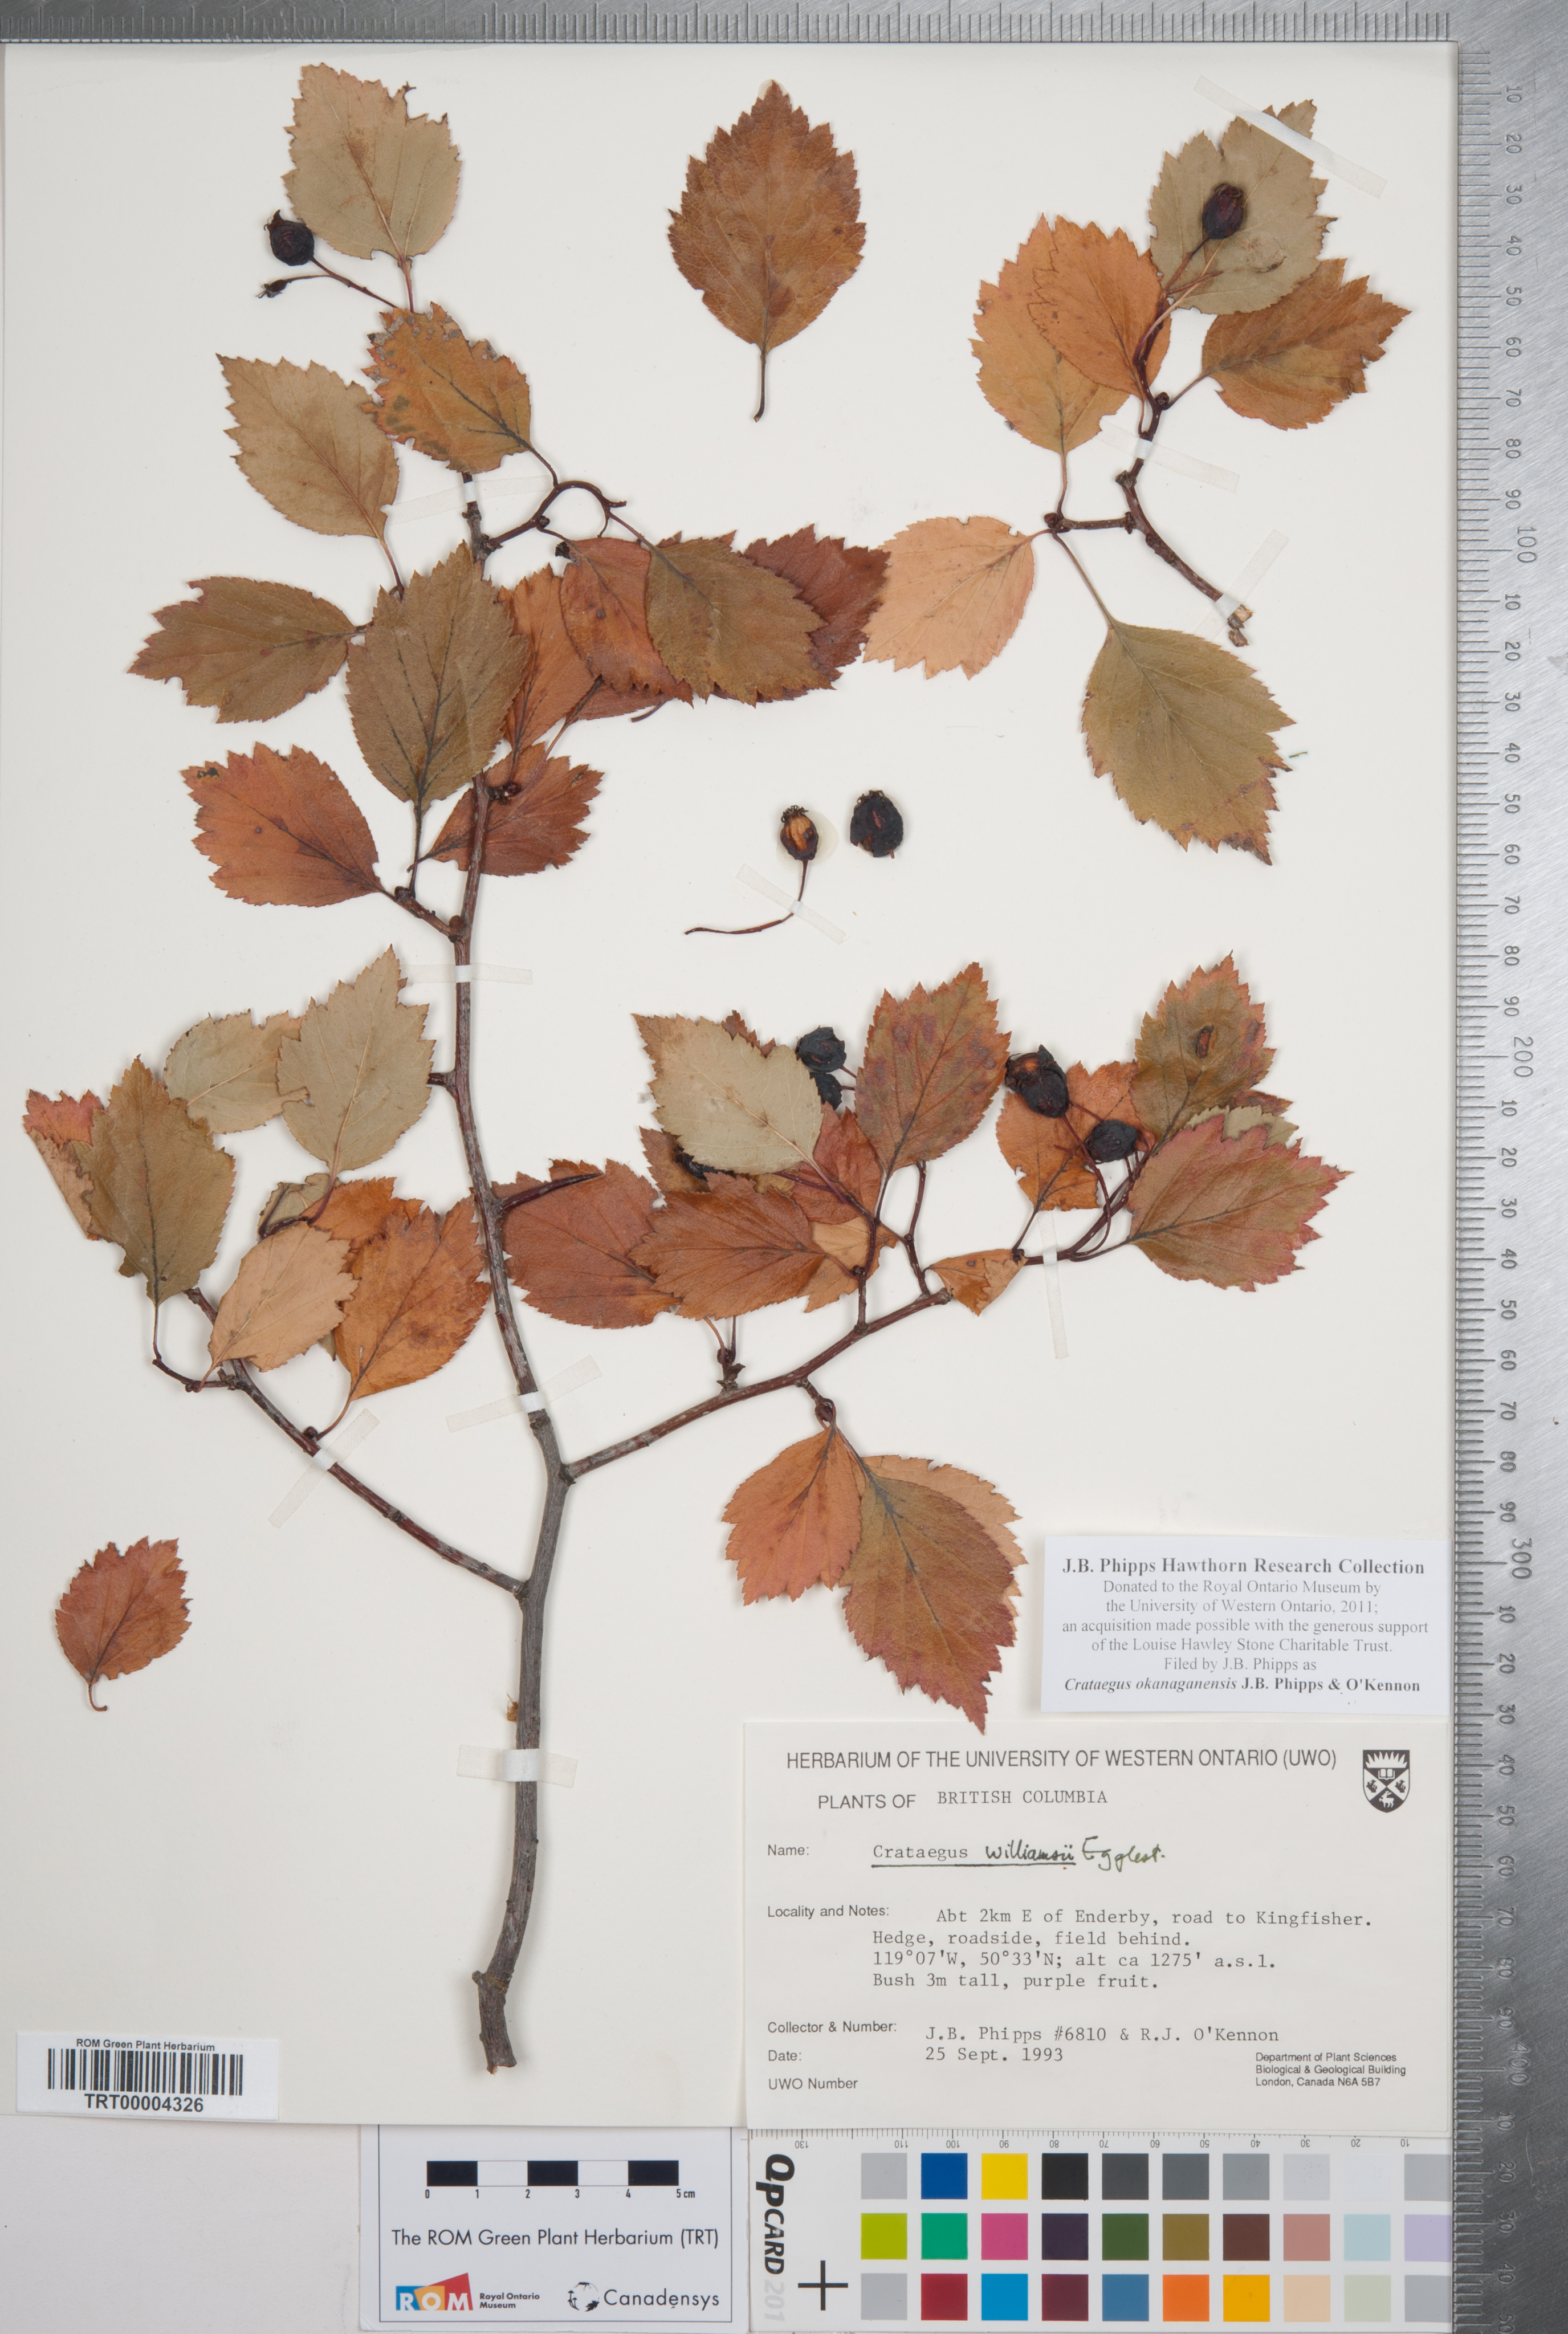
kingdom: Plantae
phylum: Tracheophyta
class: Magnoliopsida
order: Rosales
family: Rosaceae
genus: Crataegus
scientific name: Crataegus okanaganensis
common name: Okanagan valley hawthorn
